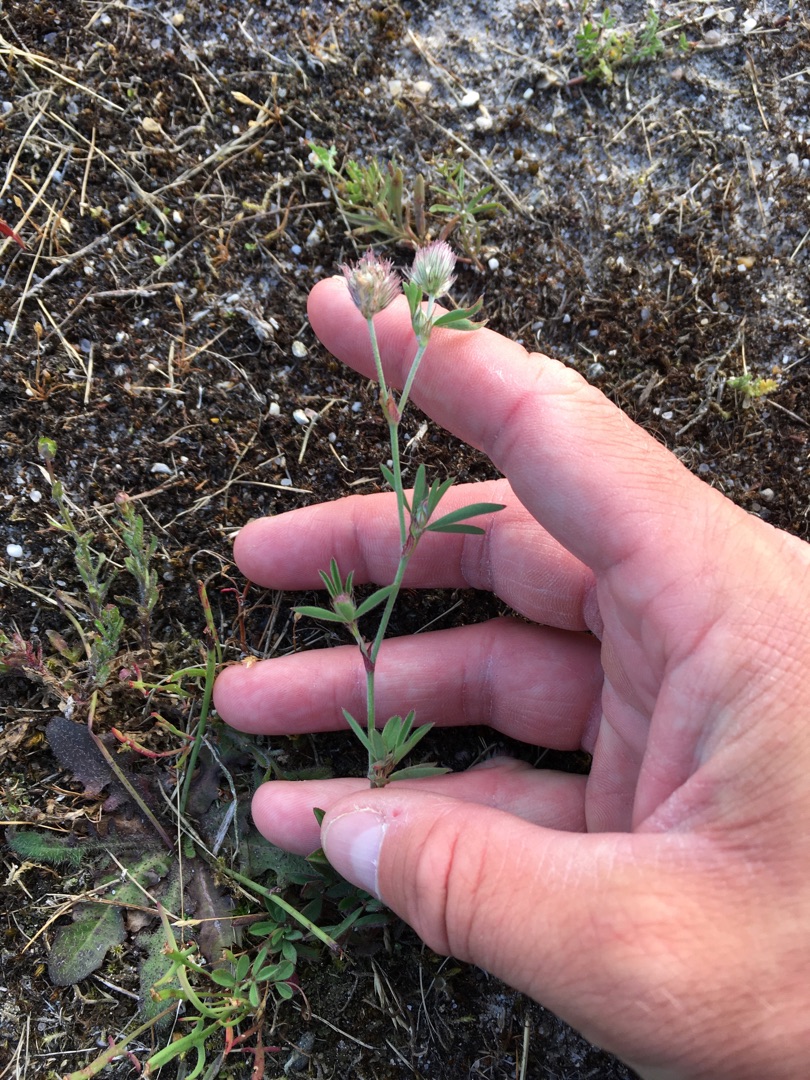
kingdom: Plantae
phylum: Tracheophyta
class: Magnoliopsida
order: Fabales
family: Fabaceae
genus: Trifolium
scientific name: Trifolium arvense
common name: Hare-kløver
